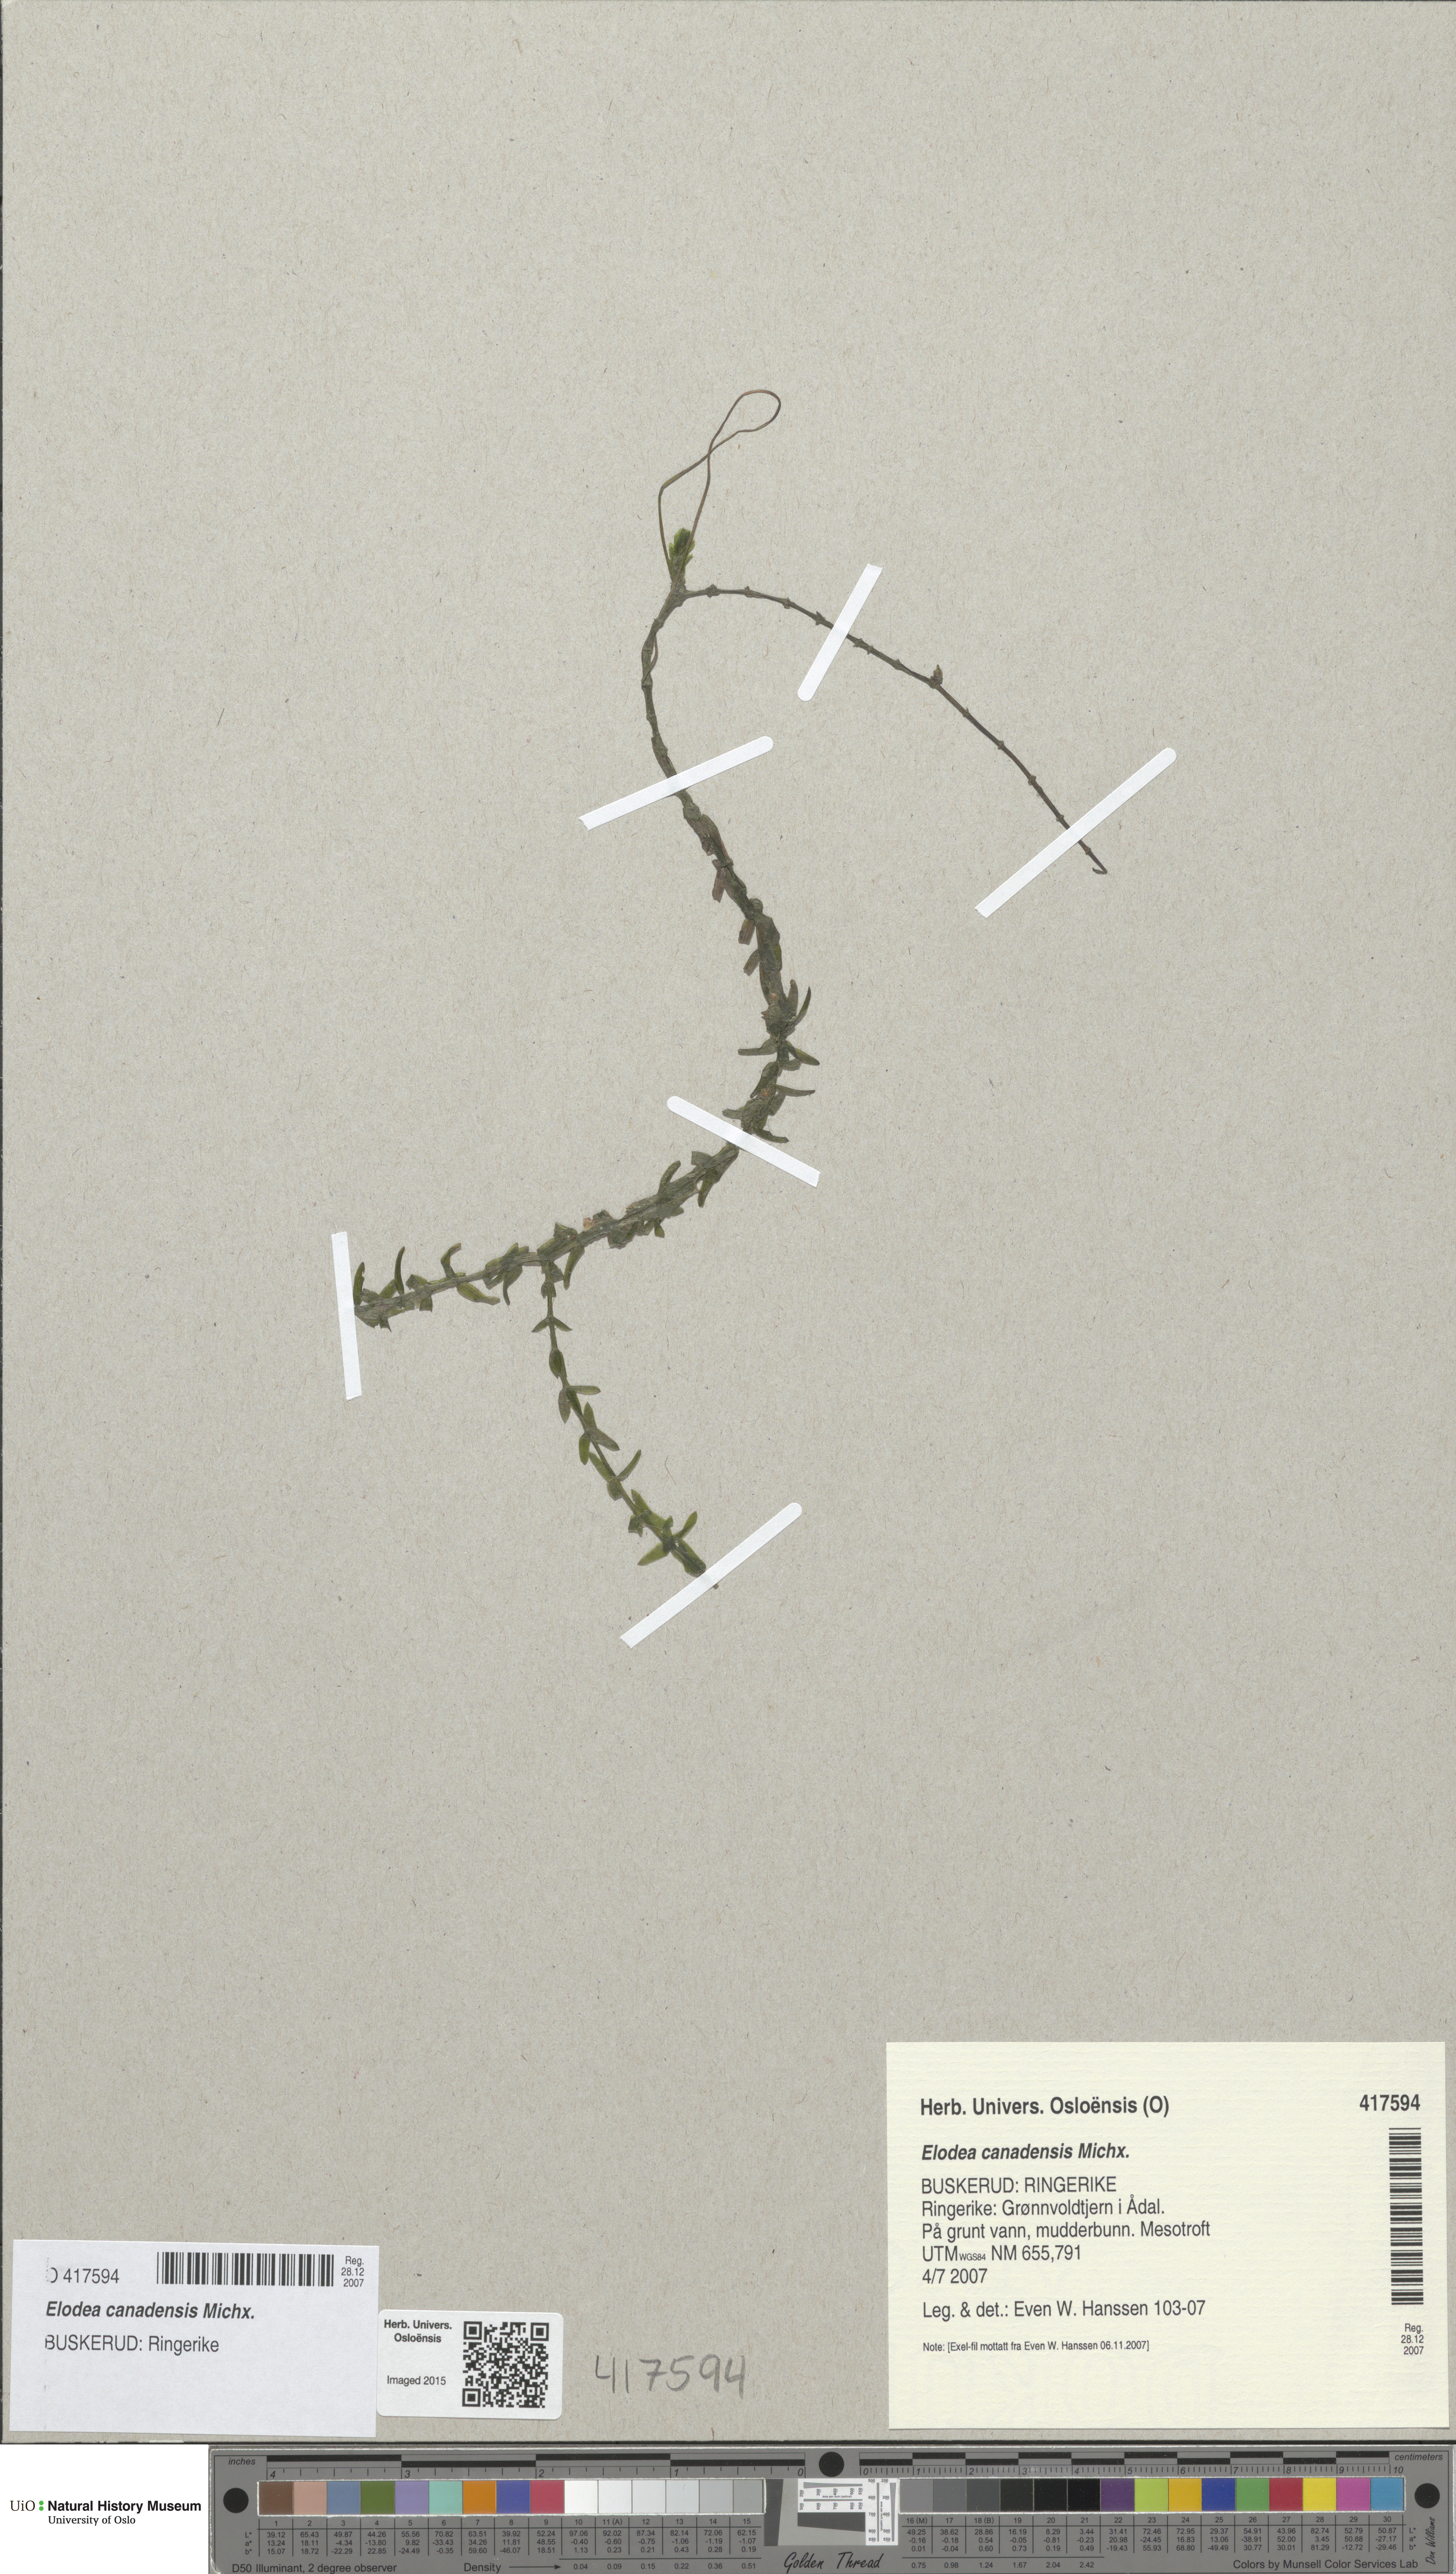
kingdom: Plantae
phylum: Tracheophyta
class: Liliopsida
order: Alismatales
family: Hydrocharitaceae
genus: Elodea
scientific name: Elodea canadensis
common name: Canadian waterweed
